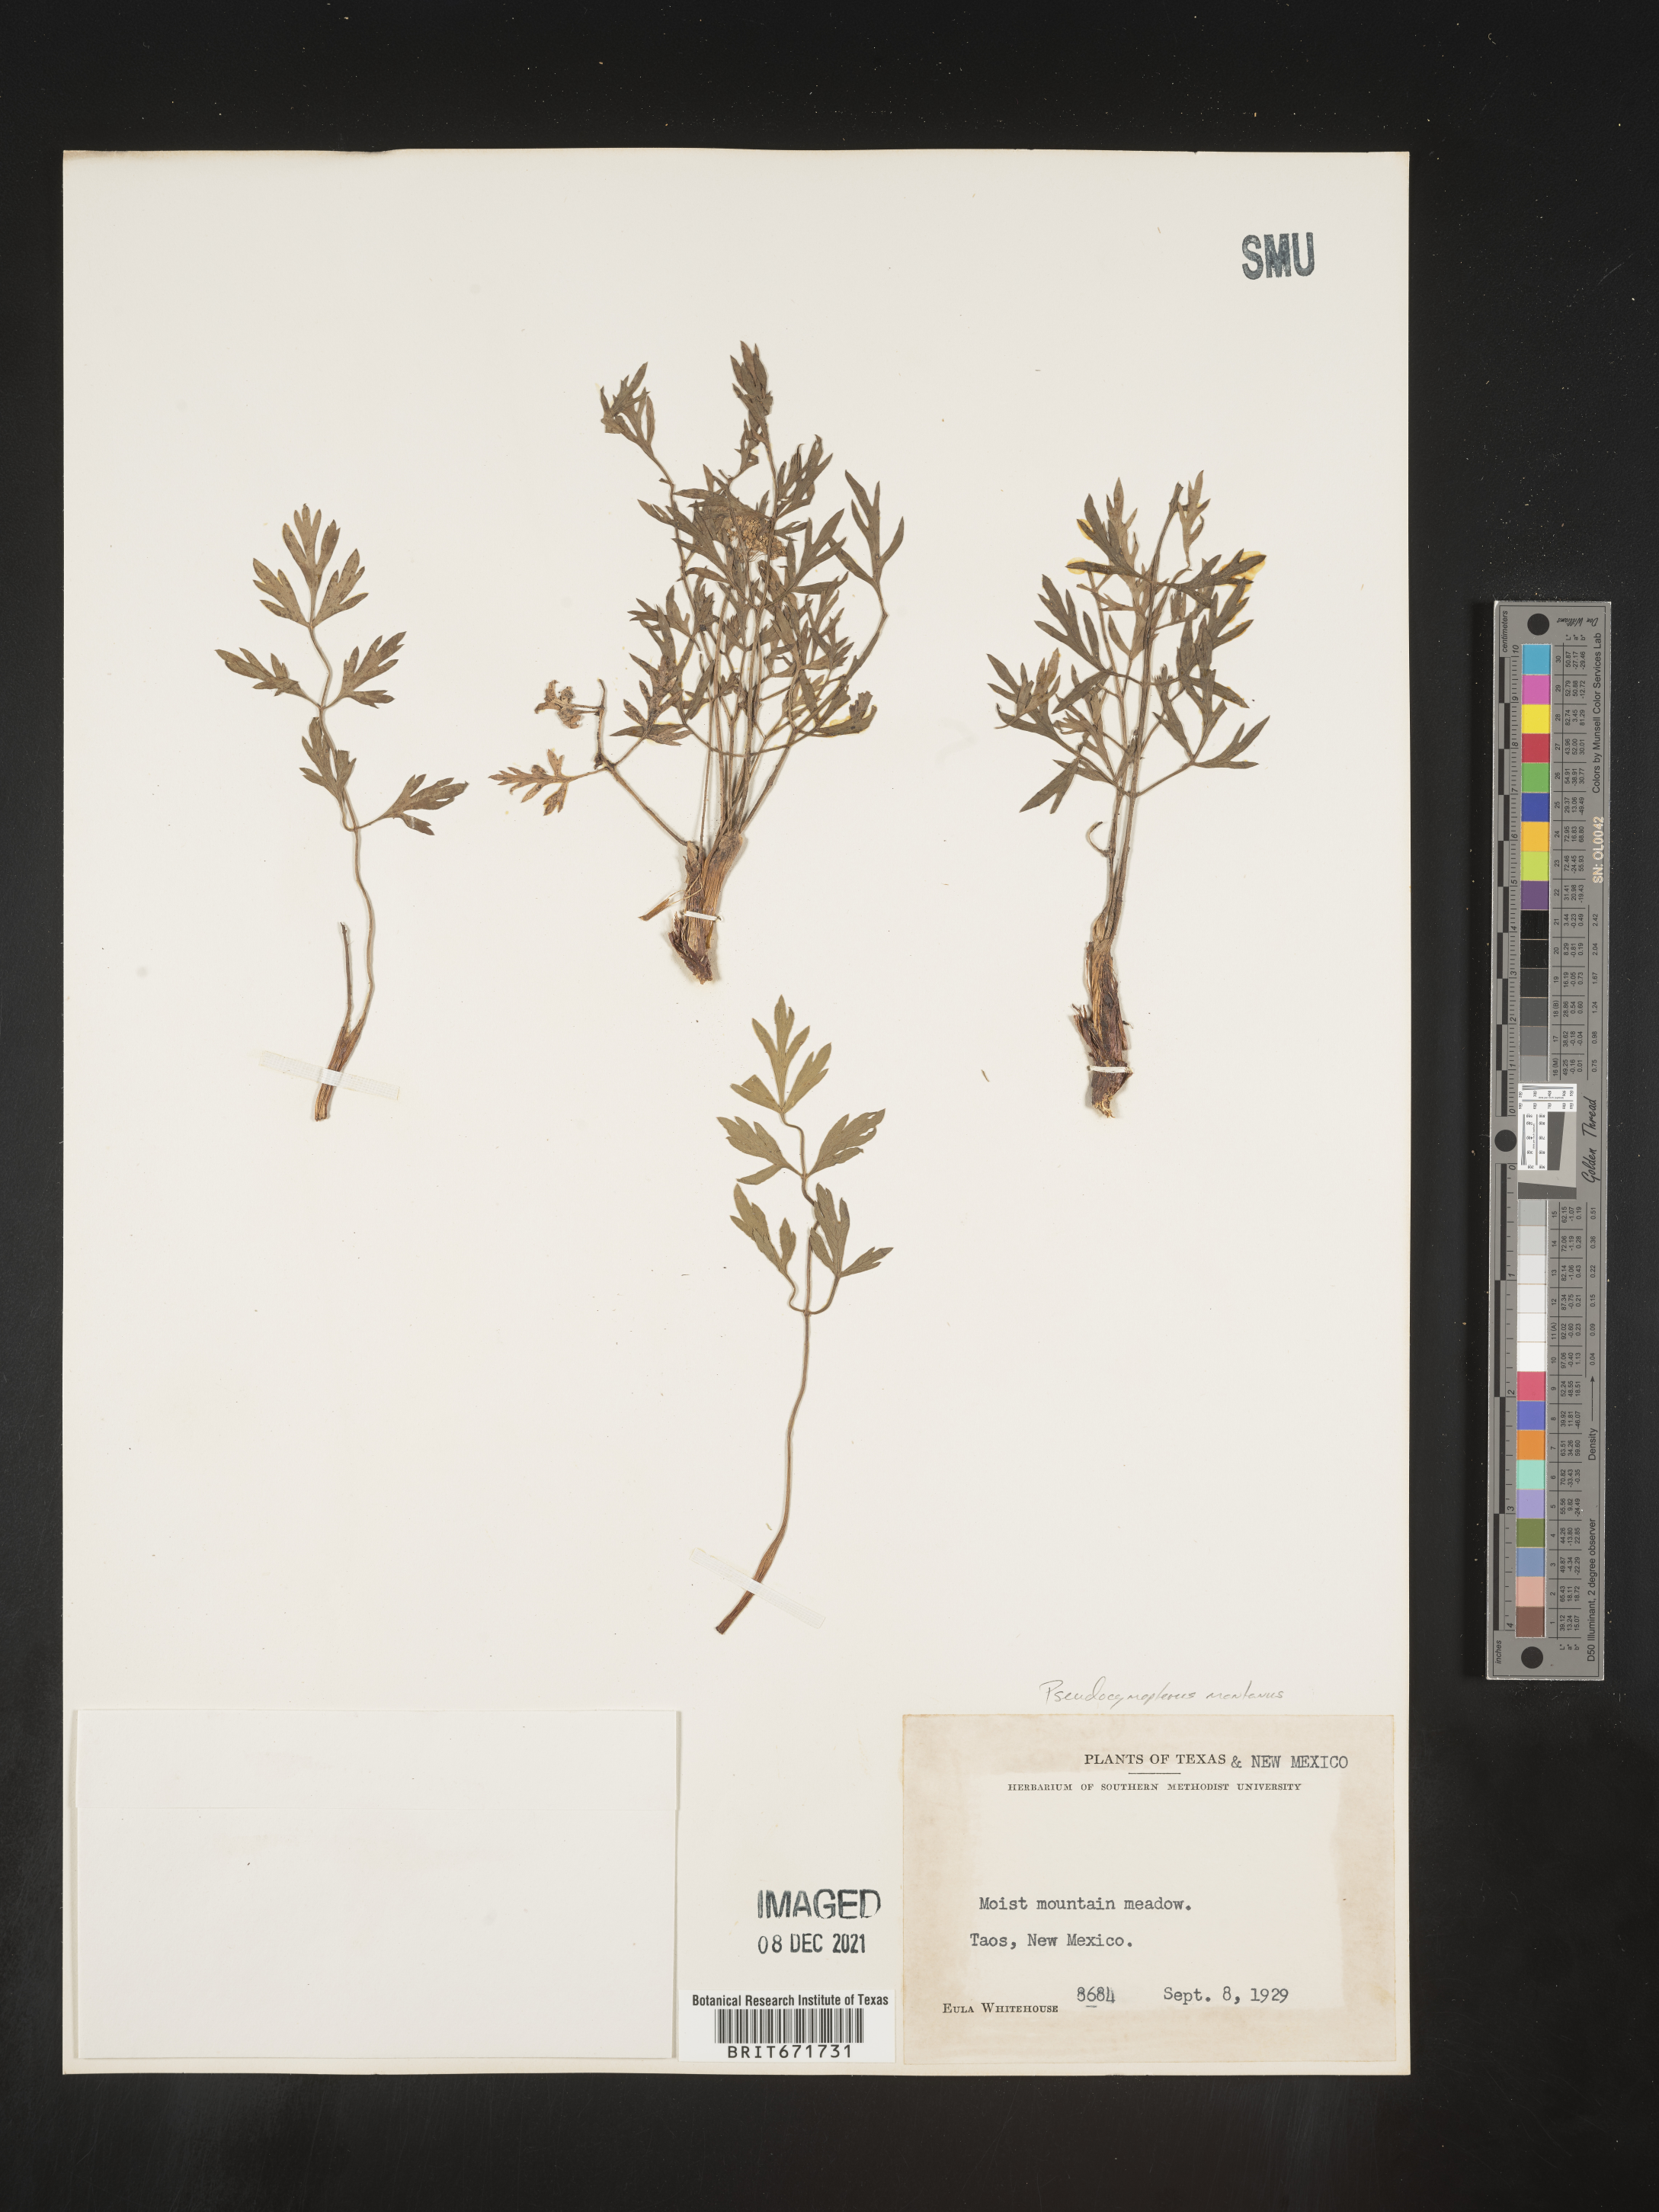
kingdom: Plantae
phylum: Tracheophyta
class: Magnoliopsida
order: Apiales
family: Apiaceae
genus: Cymopterus
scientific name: Cymopterus lemmonii
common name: Lemmon's spring-parsley
